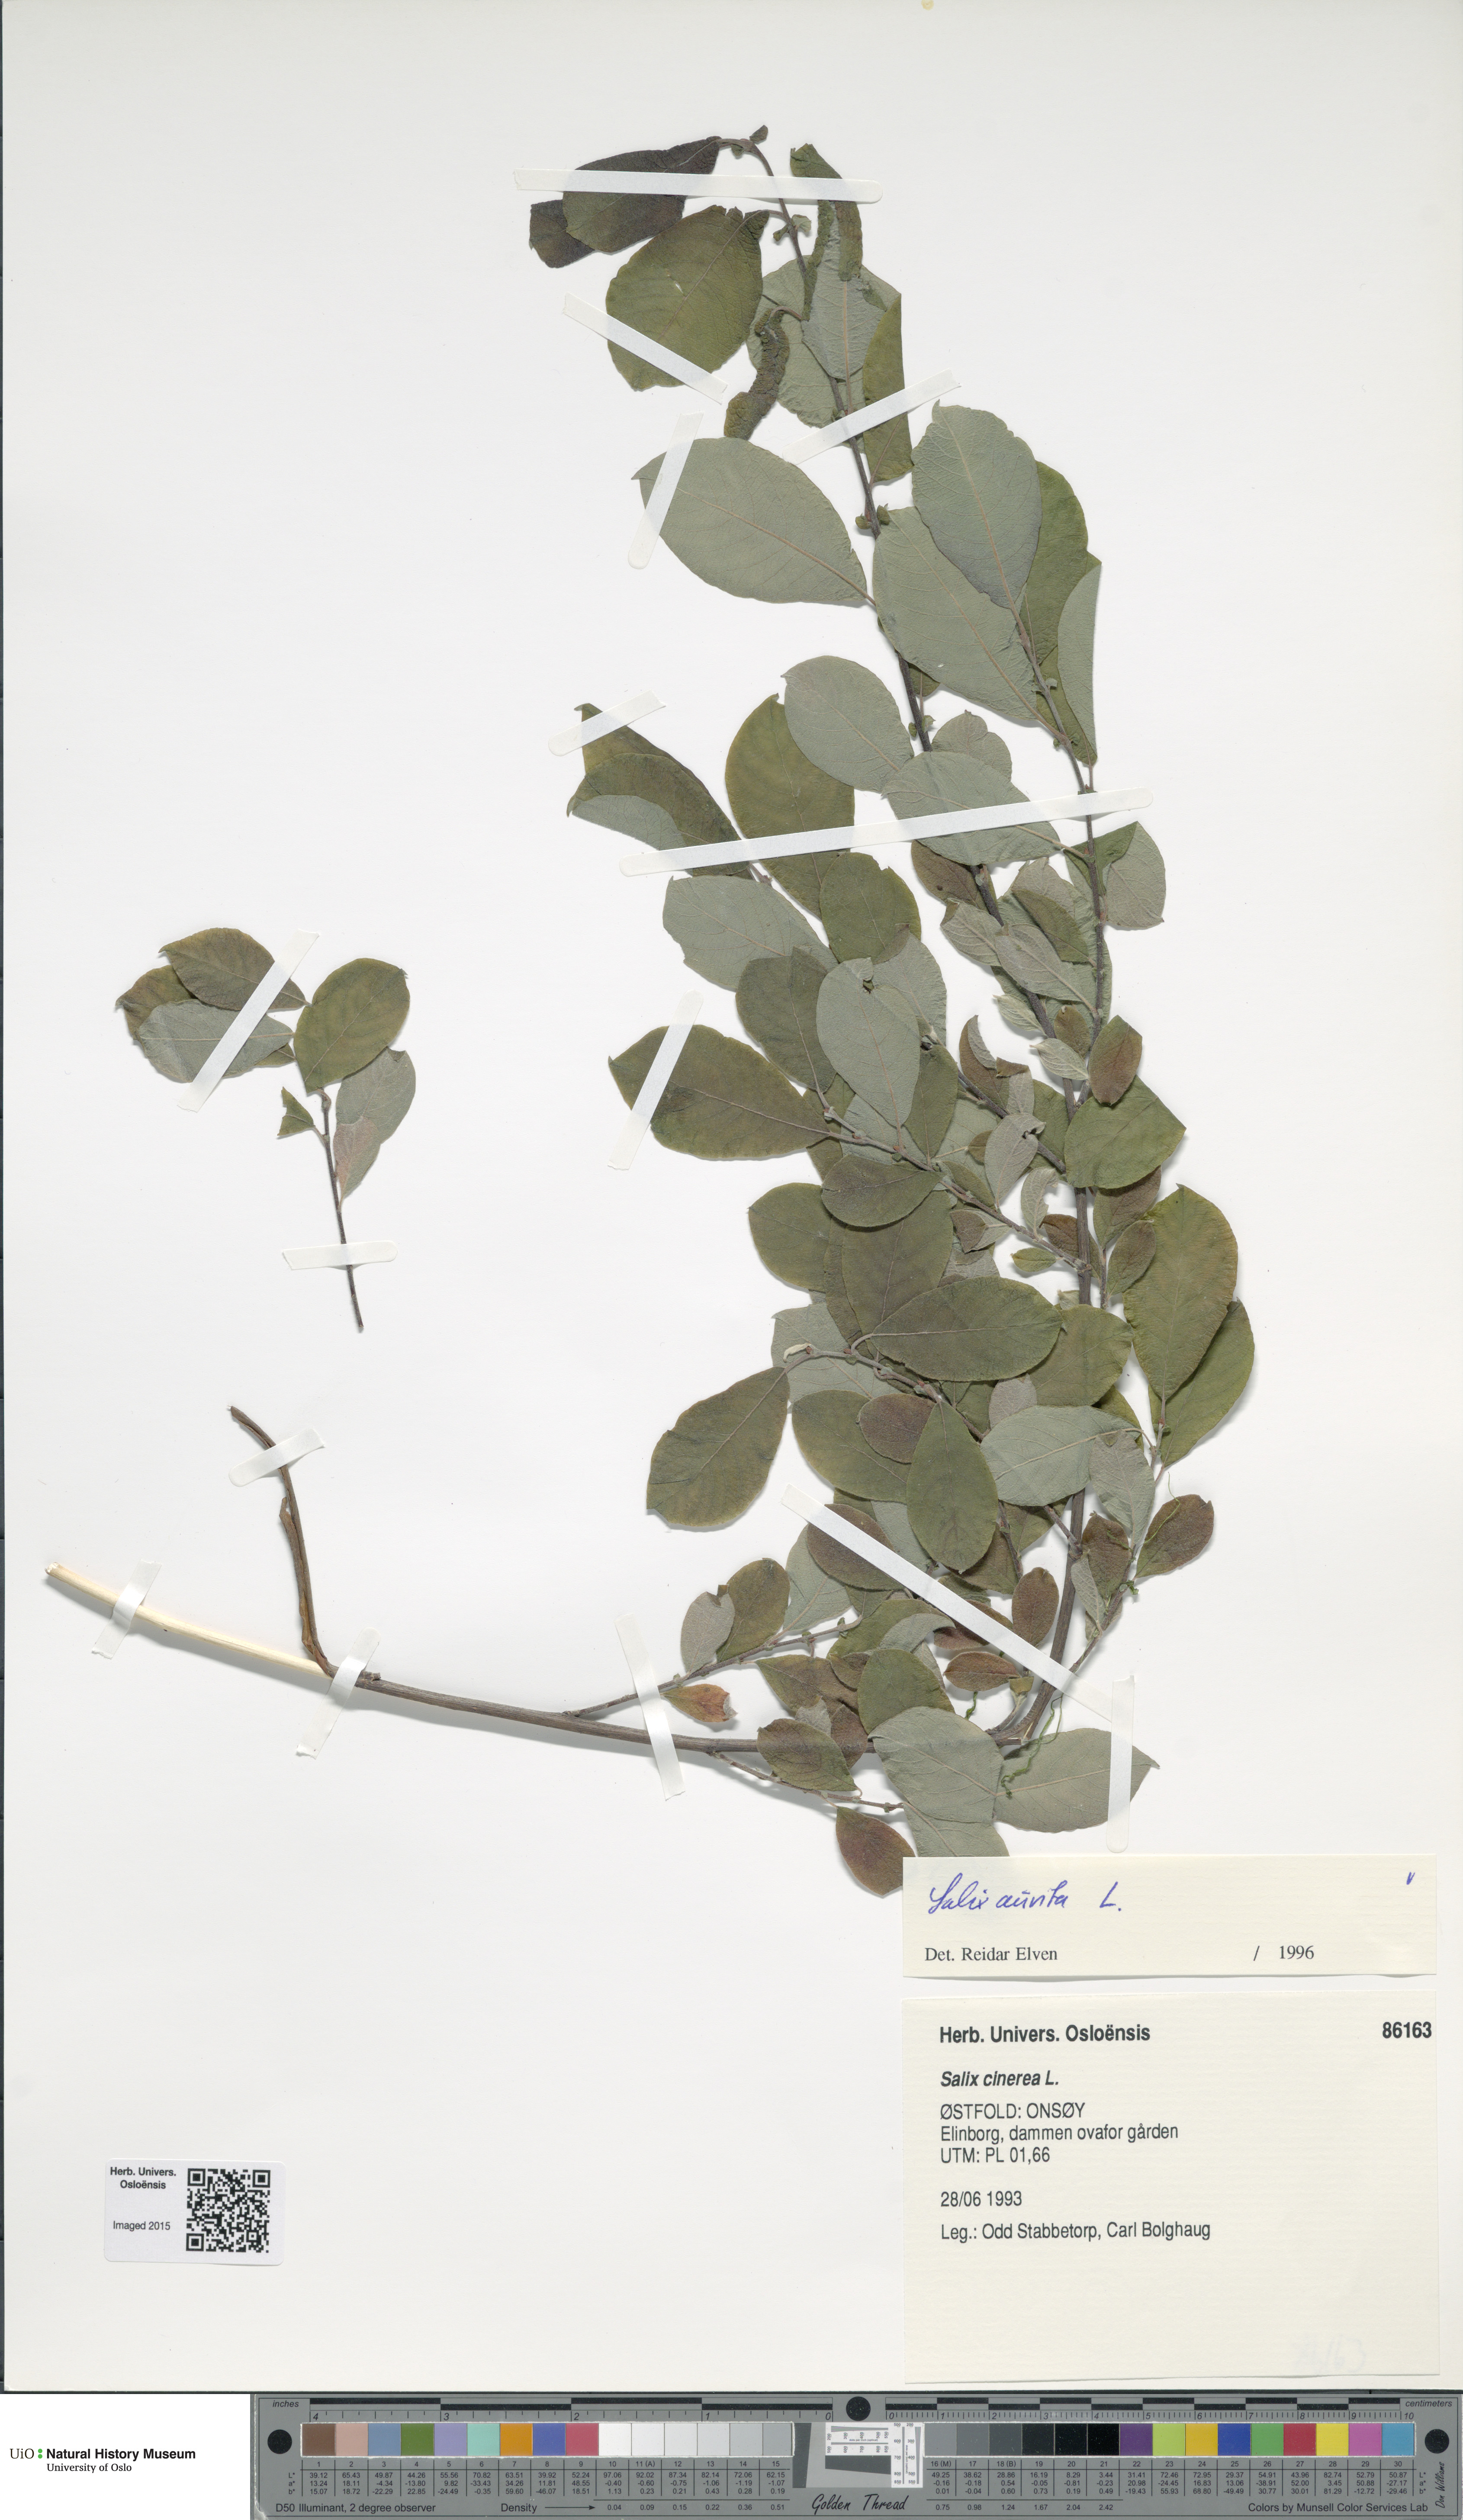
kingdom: Plantae
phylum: Tracheophyta
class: Magnoliopsida
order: Malpighiales
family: Salicaceae
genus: Salix
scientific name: Salix aurita
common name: Eared willow
